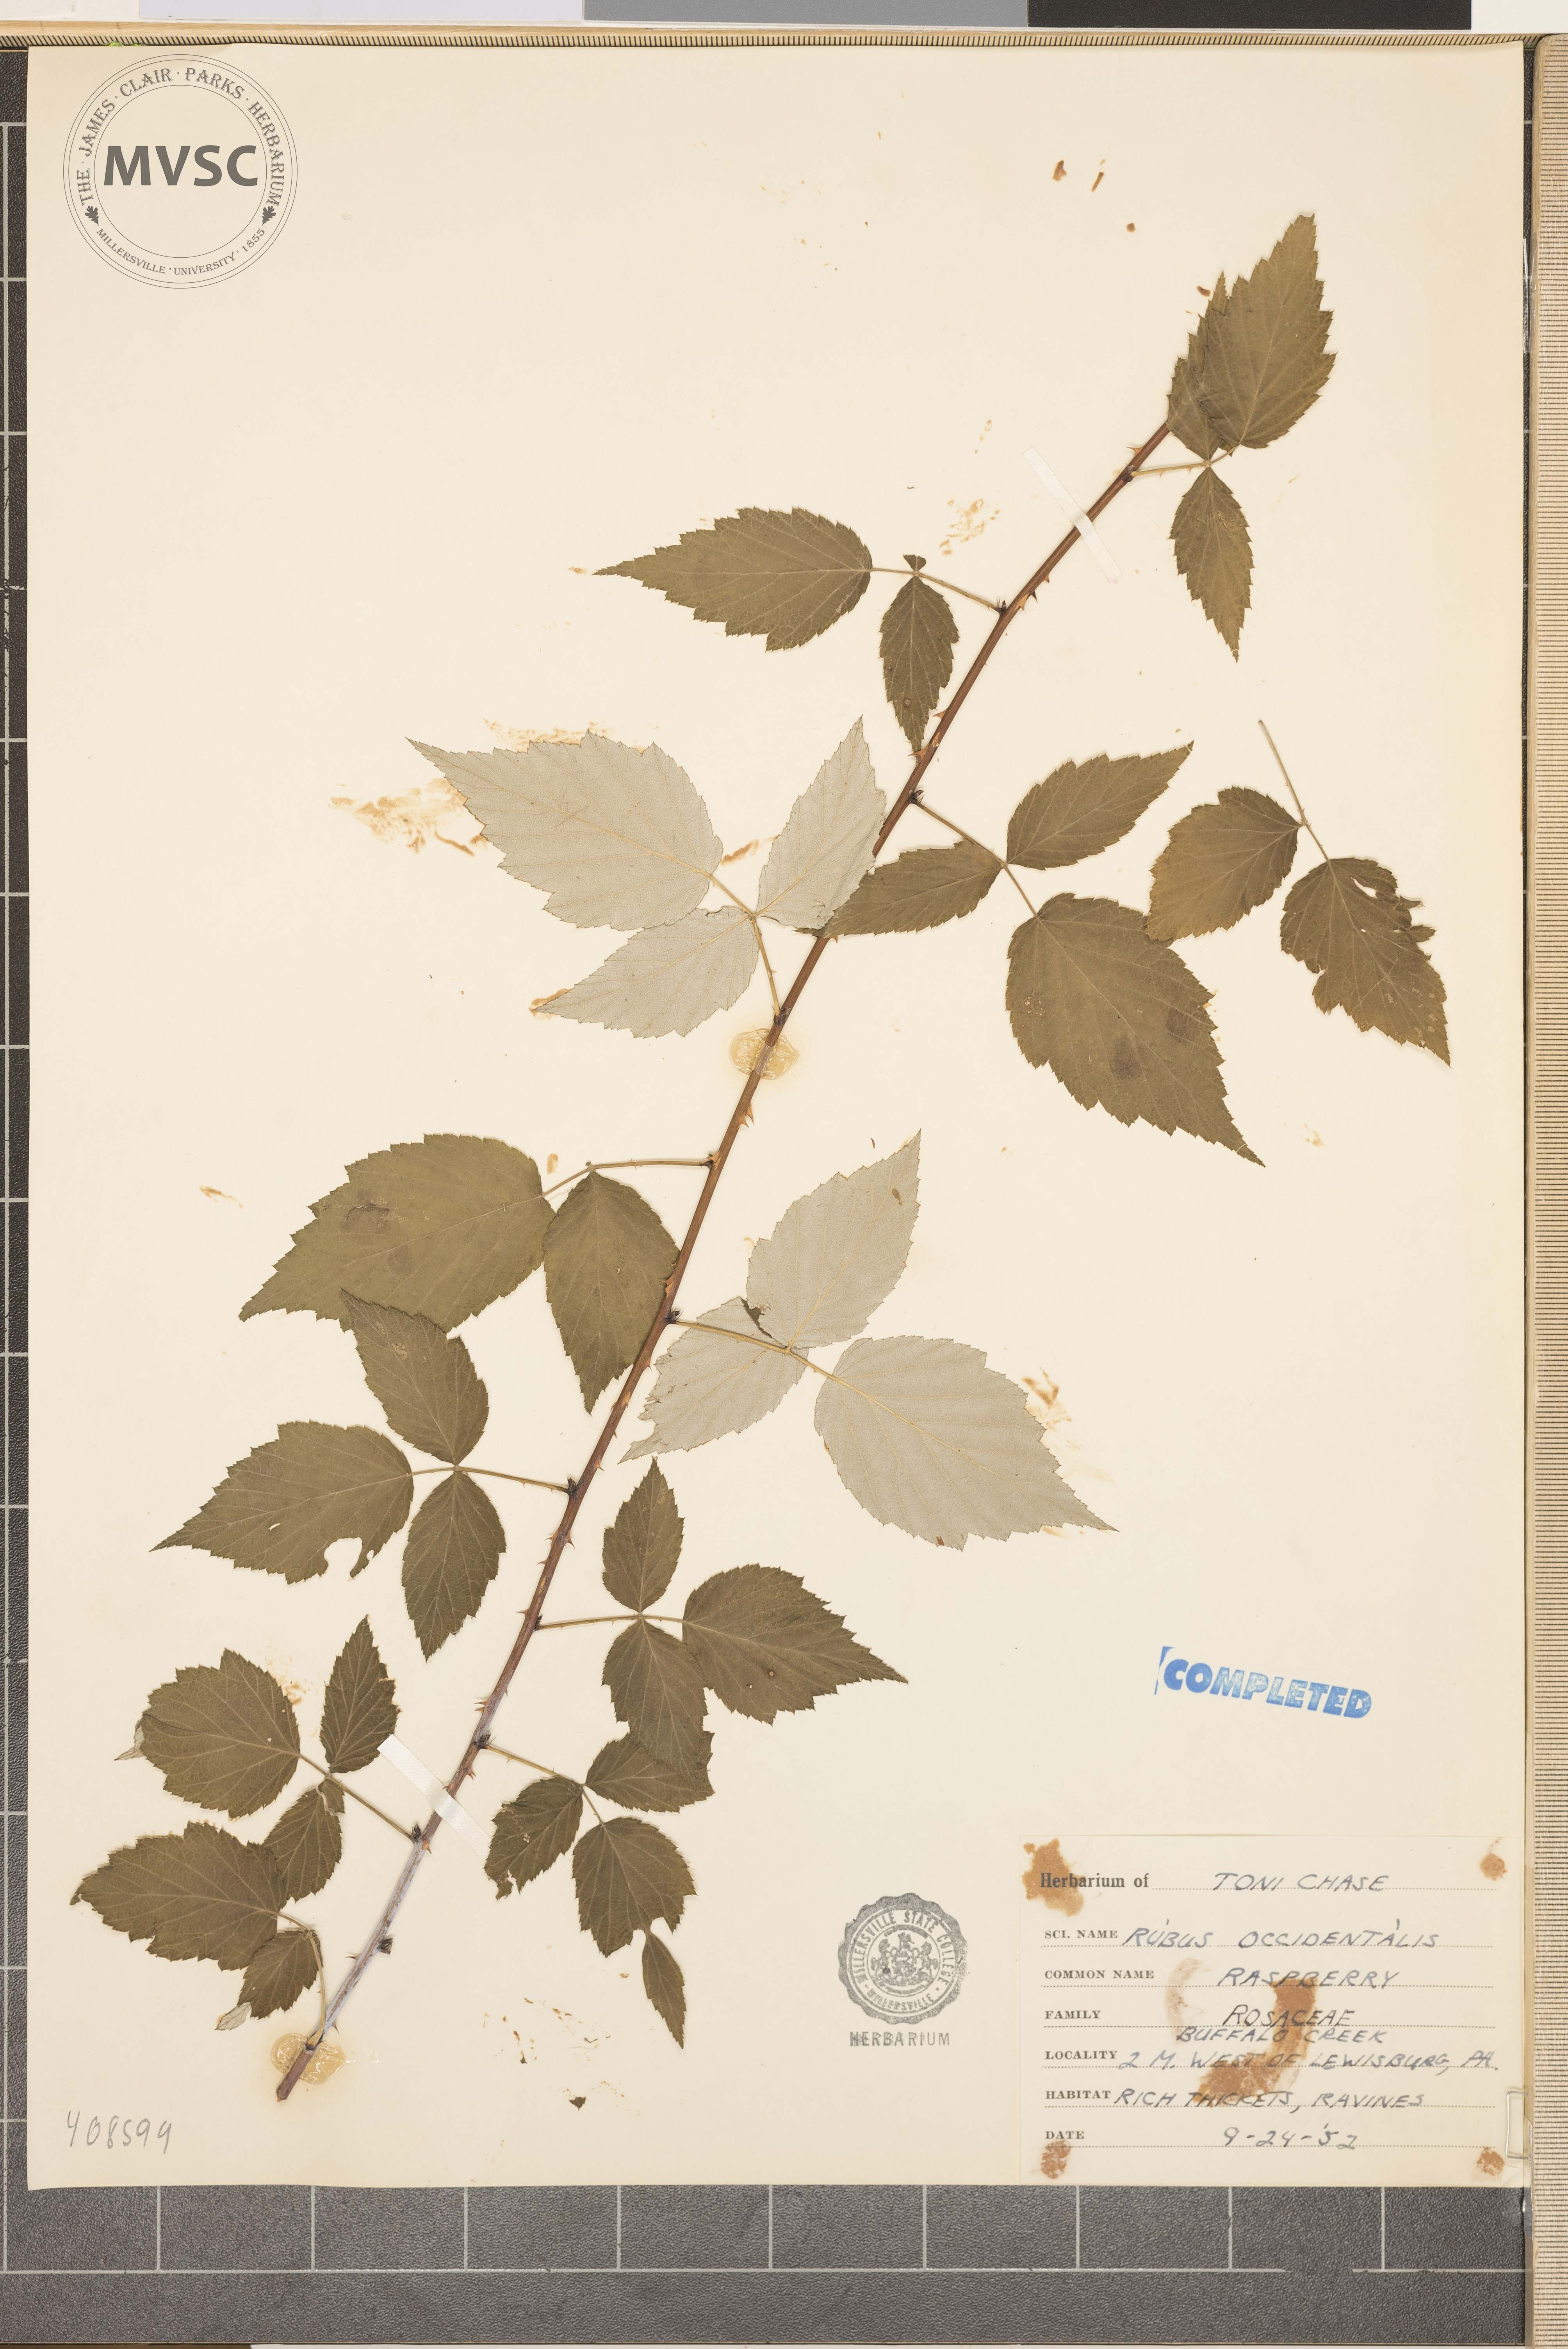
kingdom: Plantae
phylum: Tracheophyta
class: Magnoliopsida
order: Rosales
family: Rosaceae
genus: Rubus
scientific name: Rubus occidentalis
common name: Black raspberry
